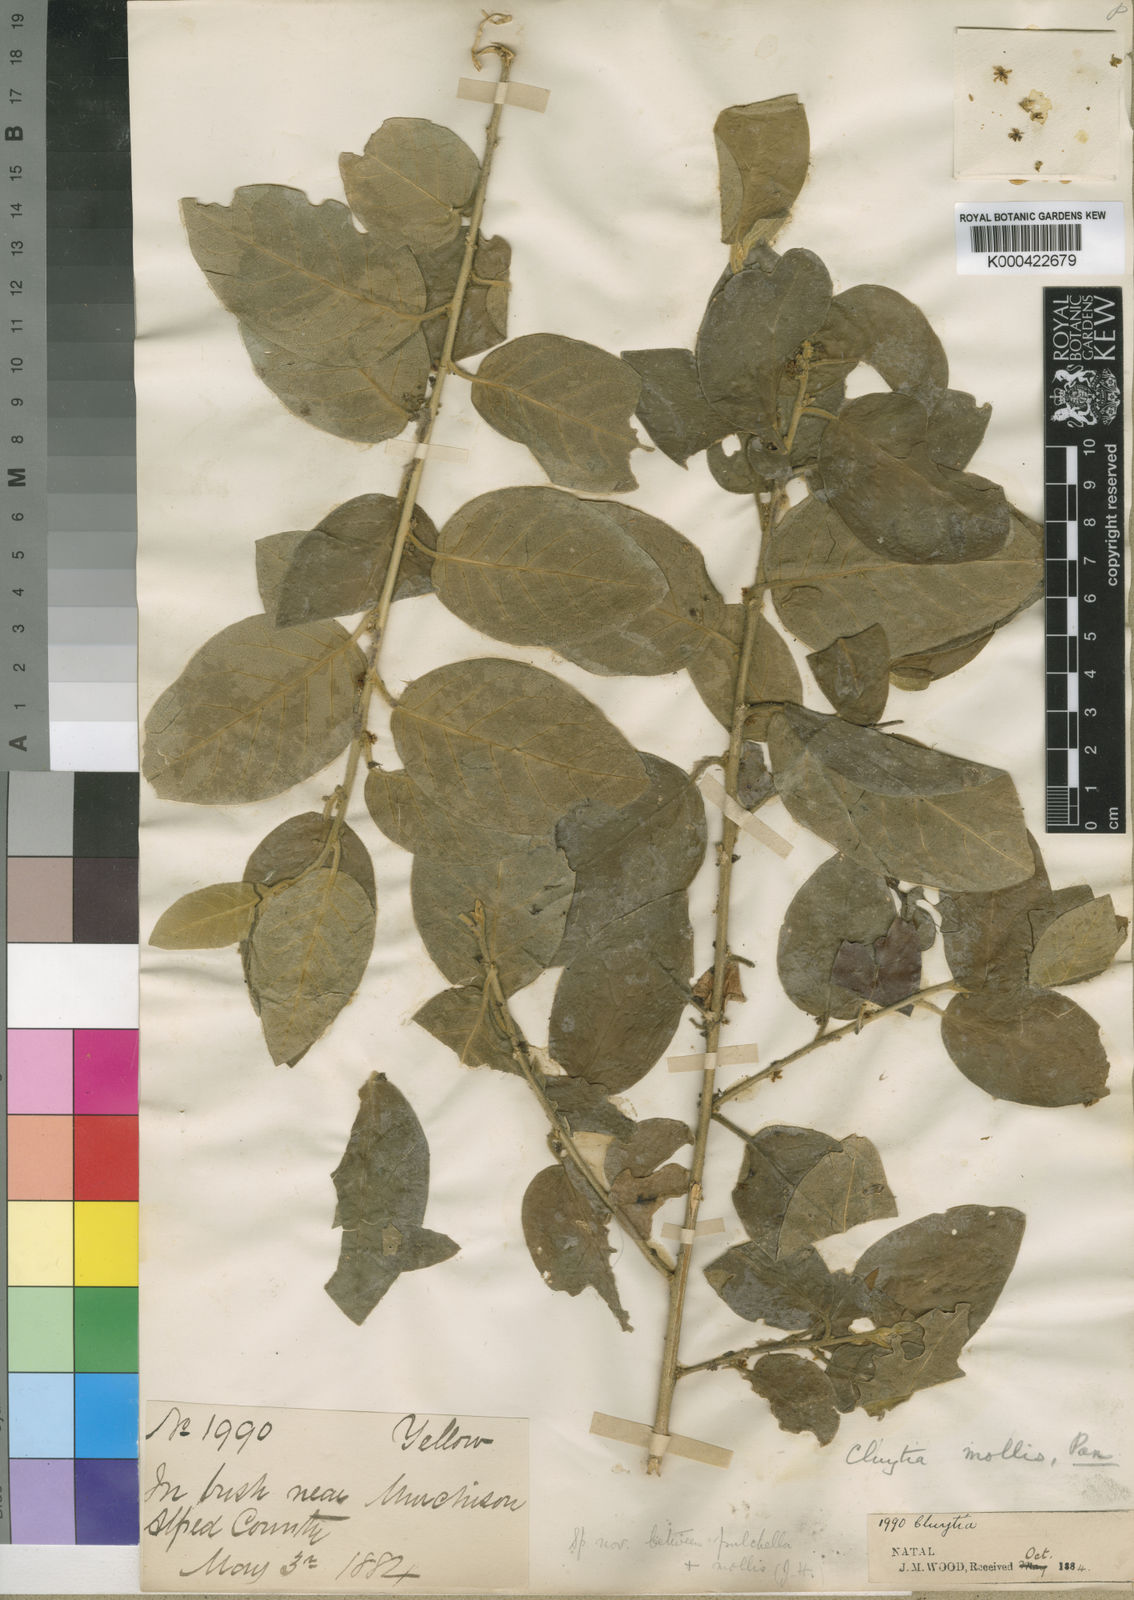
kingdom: Plantae
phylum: Tracheophyta
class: Magnoliopsida
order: Malpighiales
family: Peraceae
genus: Clutia
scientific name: Clutia abyssinica
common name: Large lightning bush
